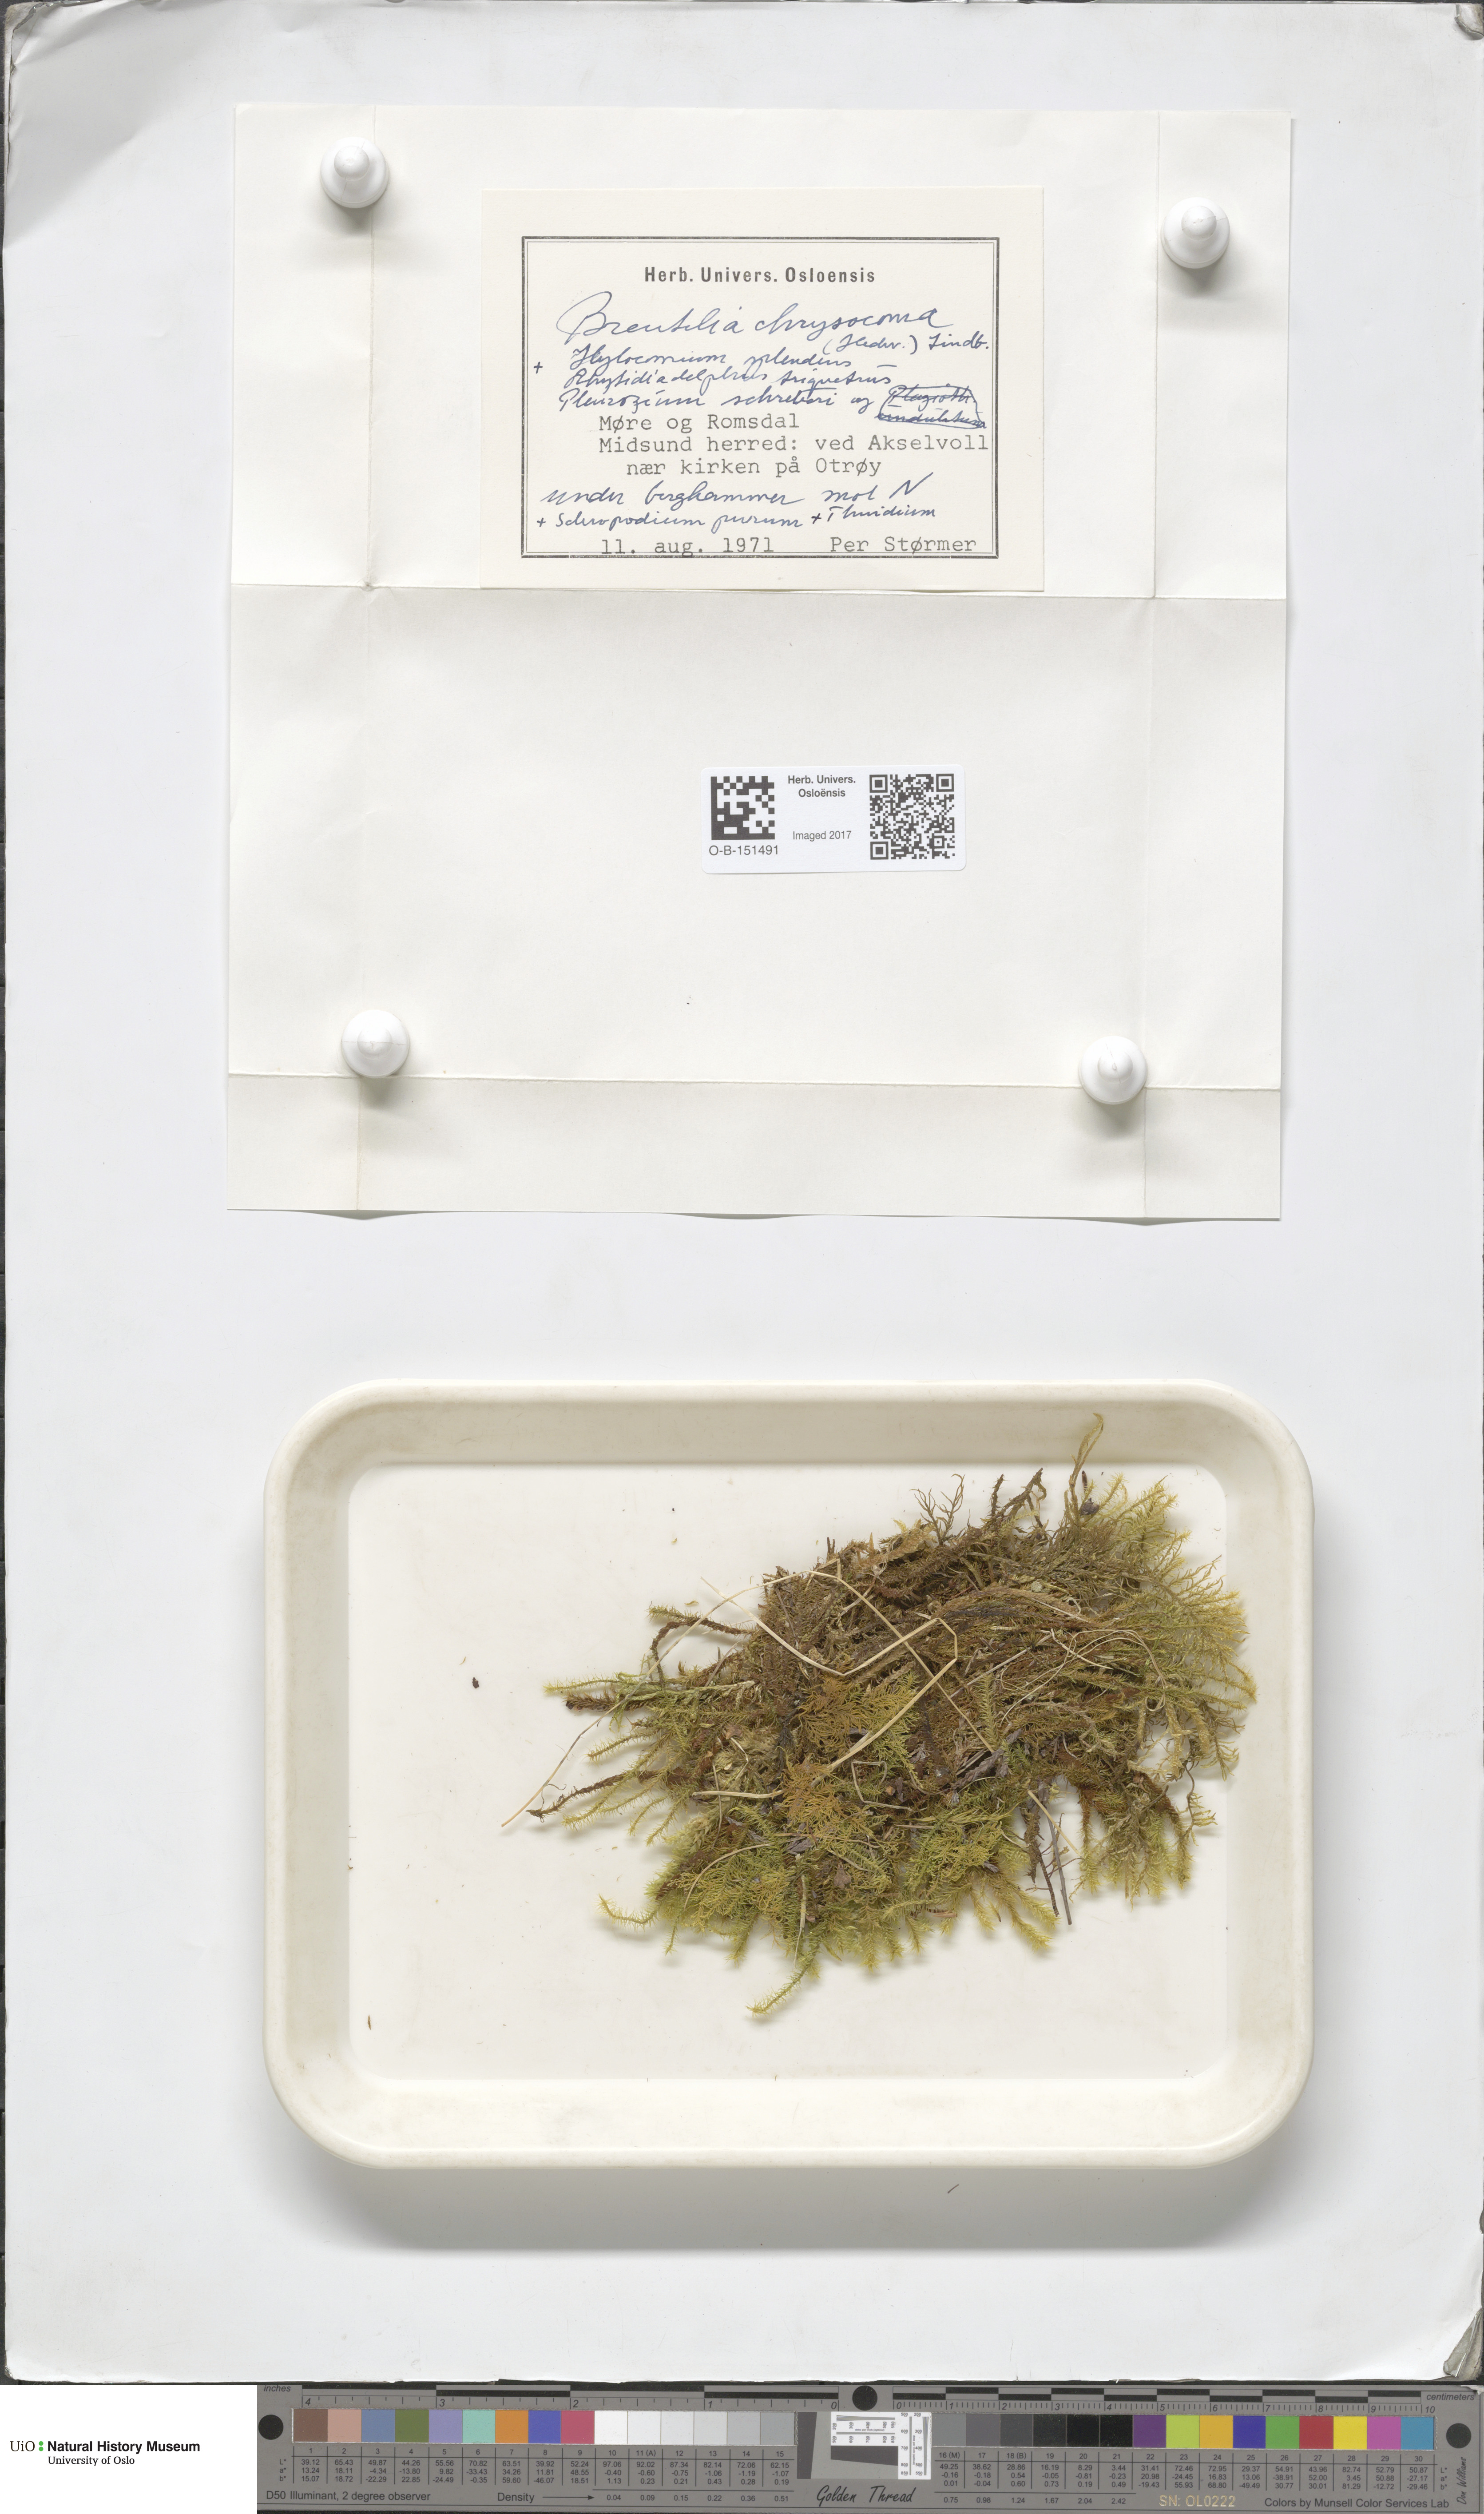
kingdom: Plantae
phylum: Bryophyta
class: Bryopsida
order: Bartramiales
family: Bartramiaceae
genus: Breutelia
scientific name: Breutelia chrysocoma
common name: Bottle-brush moss
